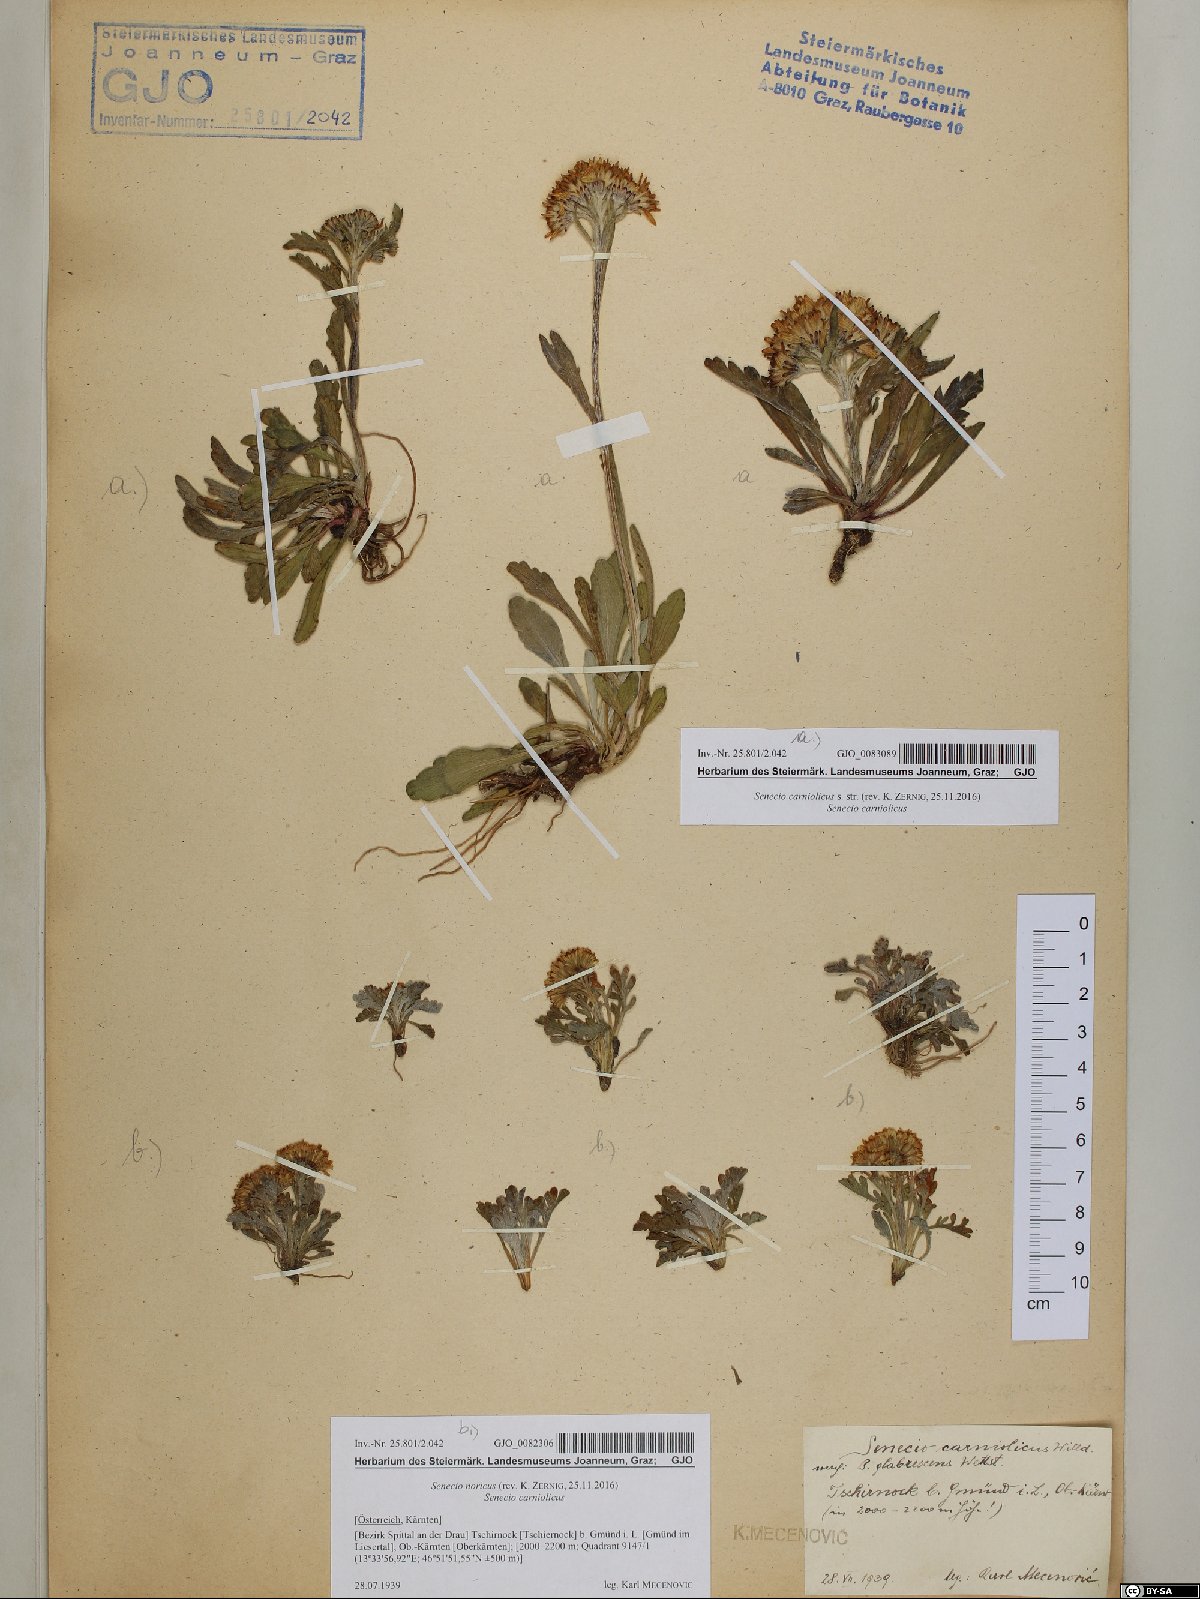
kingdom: Plantae
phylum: Tracheophyta
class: Magnoliopsida
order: Asterales
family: Asteraceae
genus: Jacobaea
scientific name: Jacobaea norica
